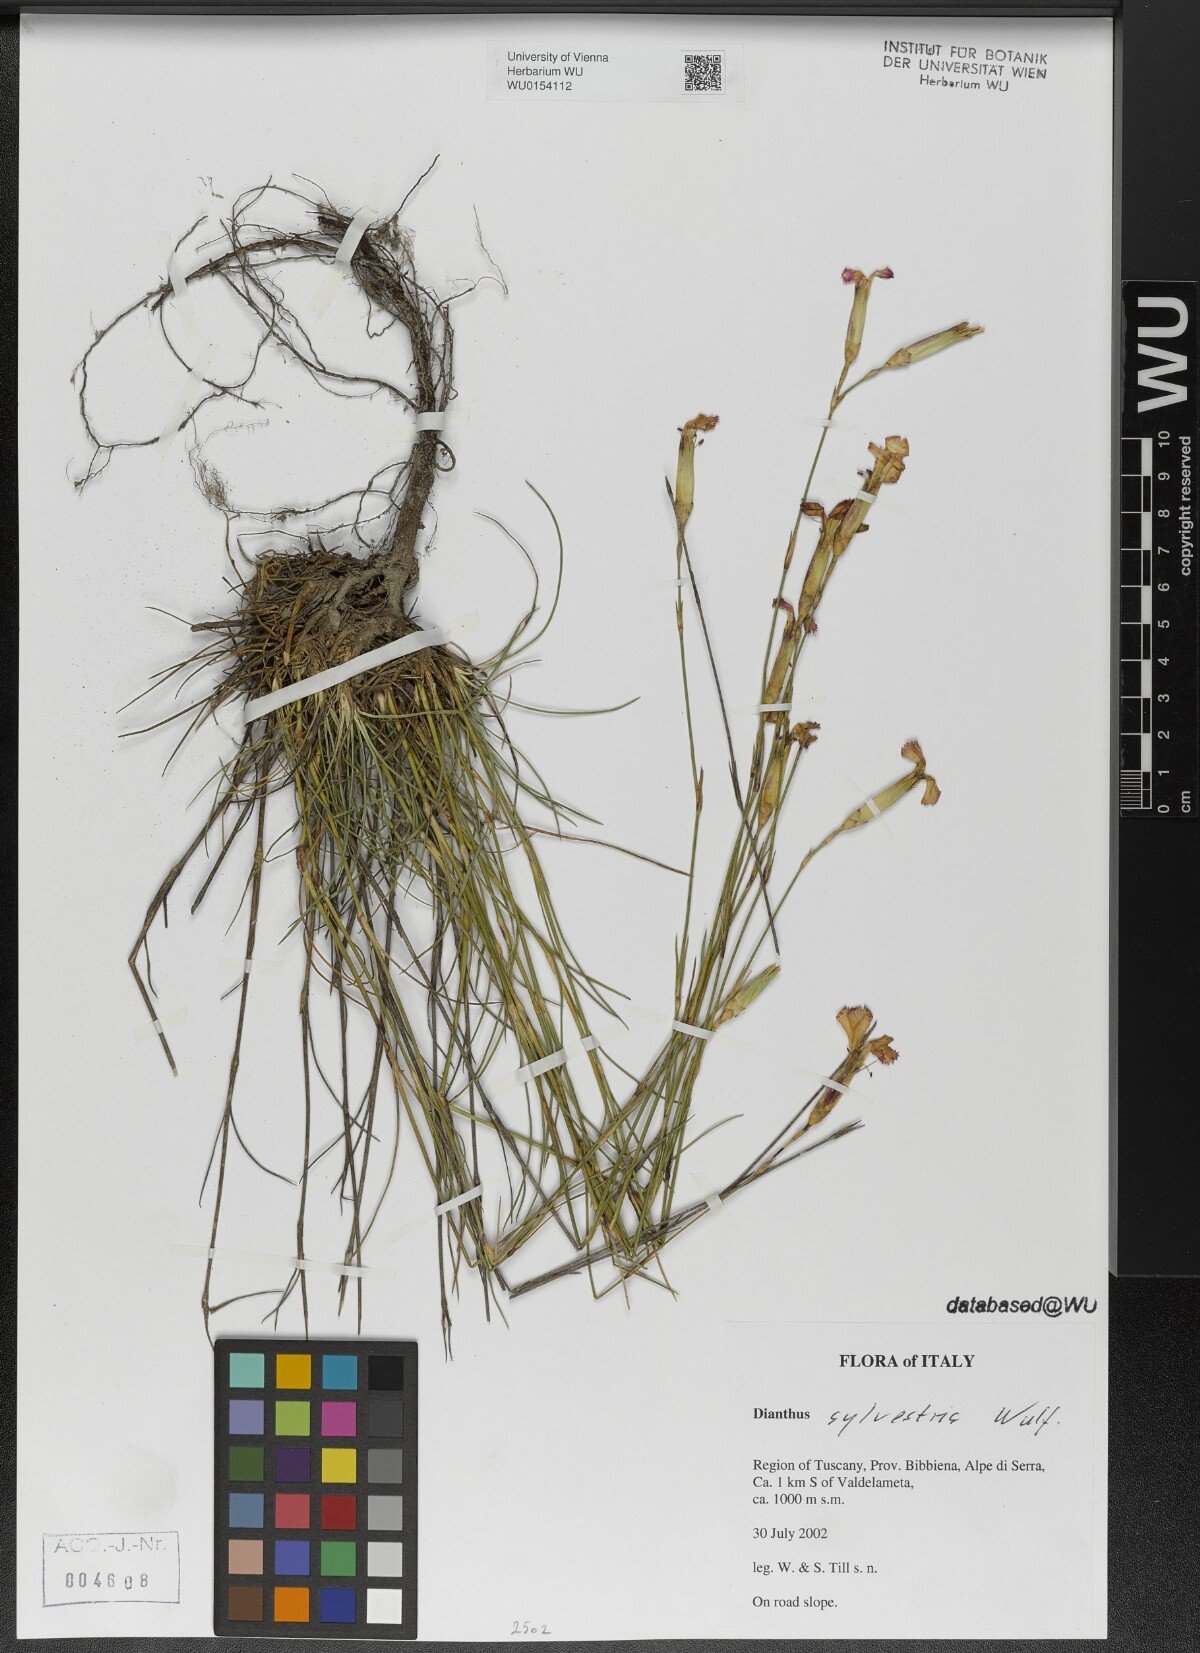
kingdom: Plantae
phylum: Tracheophyta
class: Magnoliopsida
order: Caryophyllales
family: Caryophyllaceae
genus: Dianthus
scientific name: Dianthus sylvestris
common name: Wood pink
